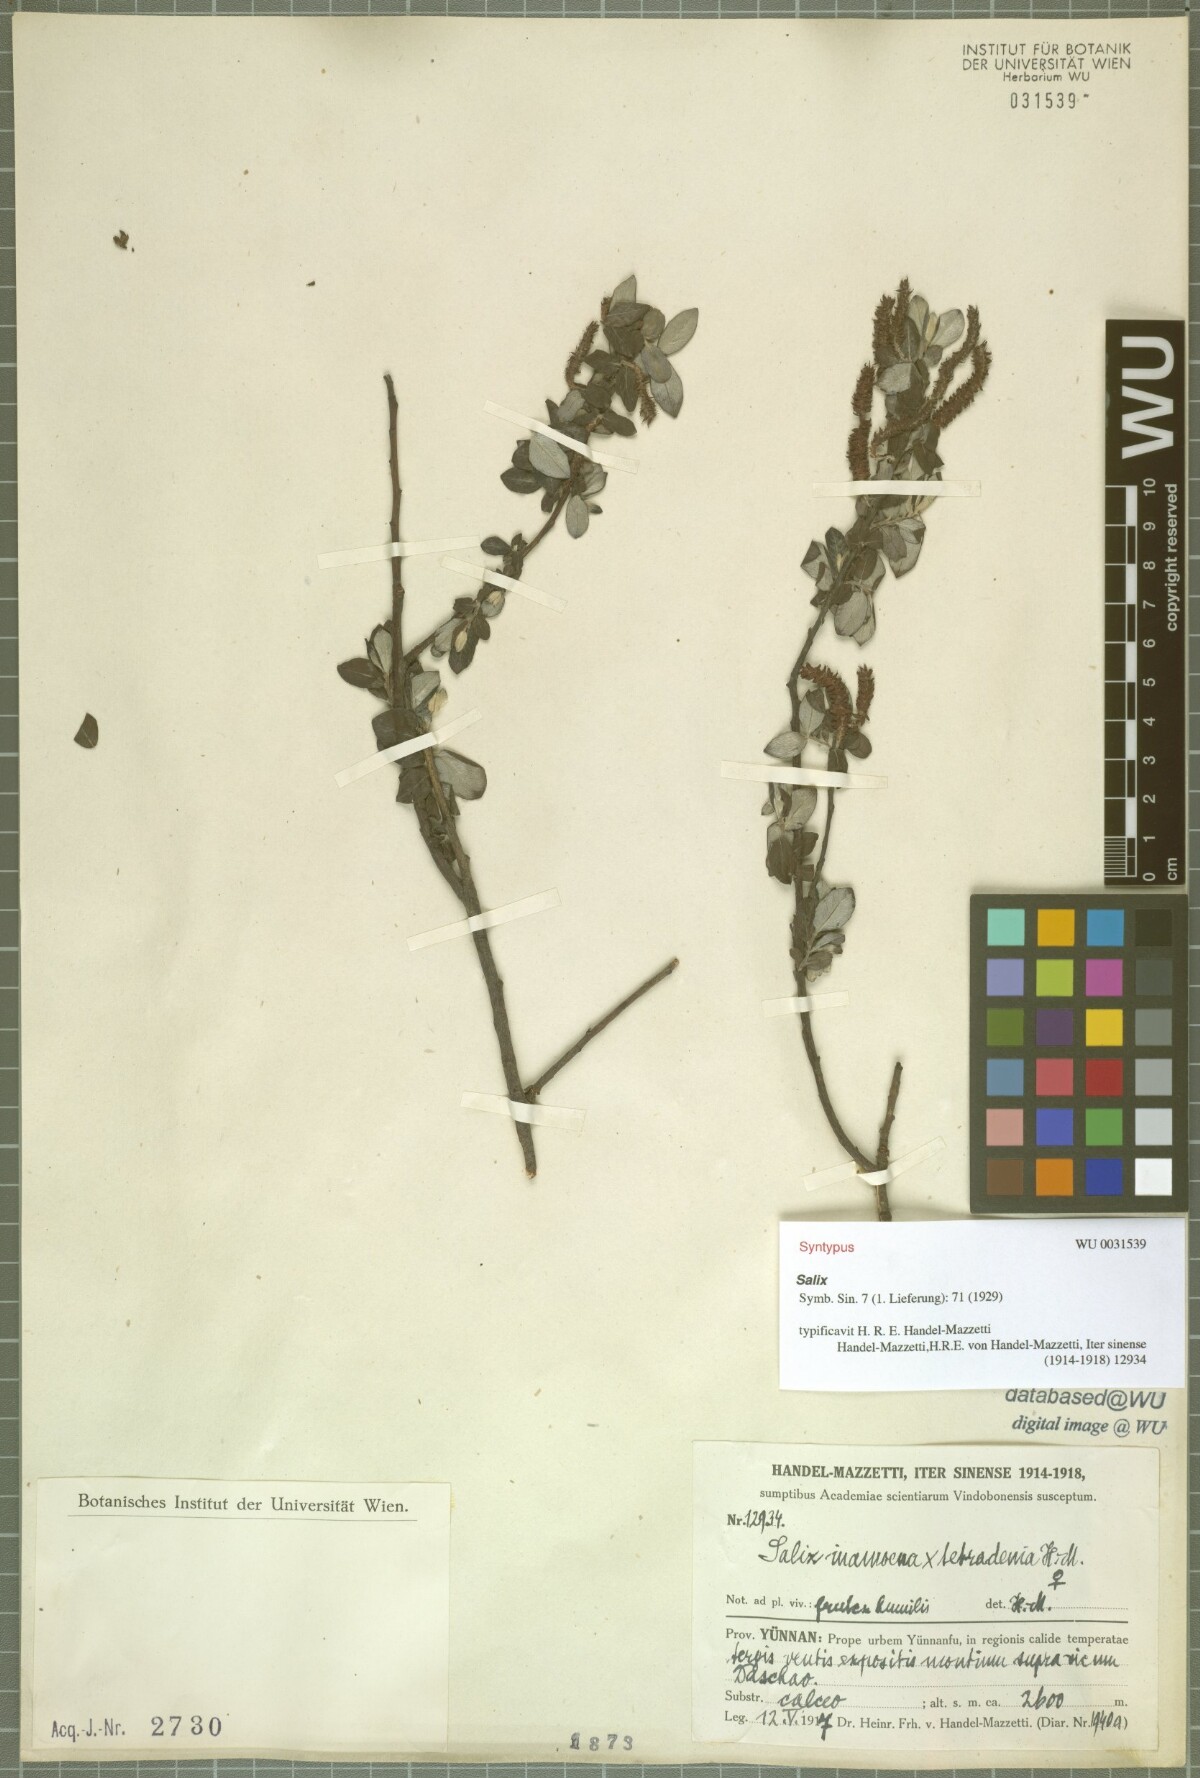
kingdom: Plantae
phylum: Tracheophyta
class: Magnoliopsida
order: Malpighiales
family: Salicaceae
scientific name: Salicaceae
